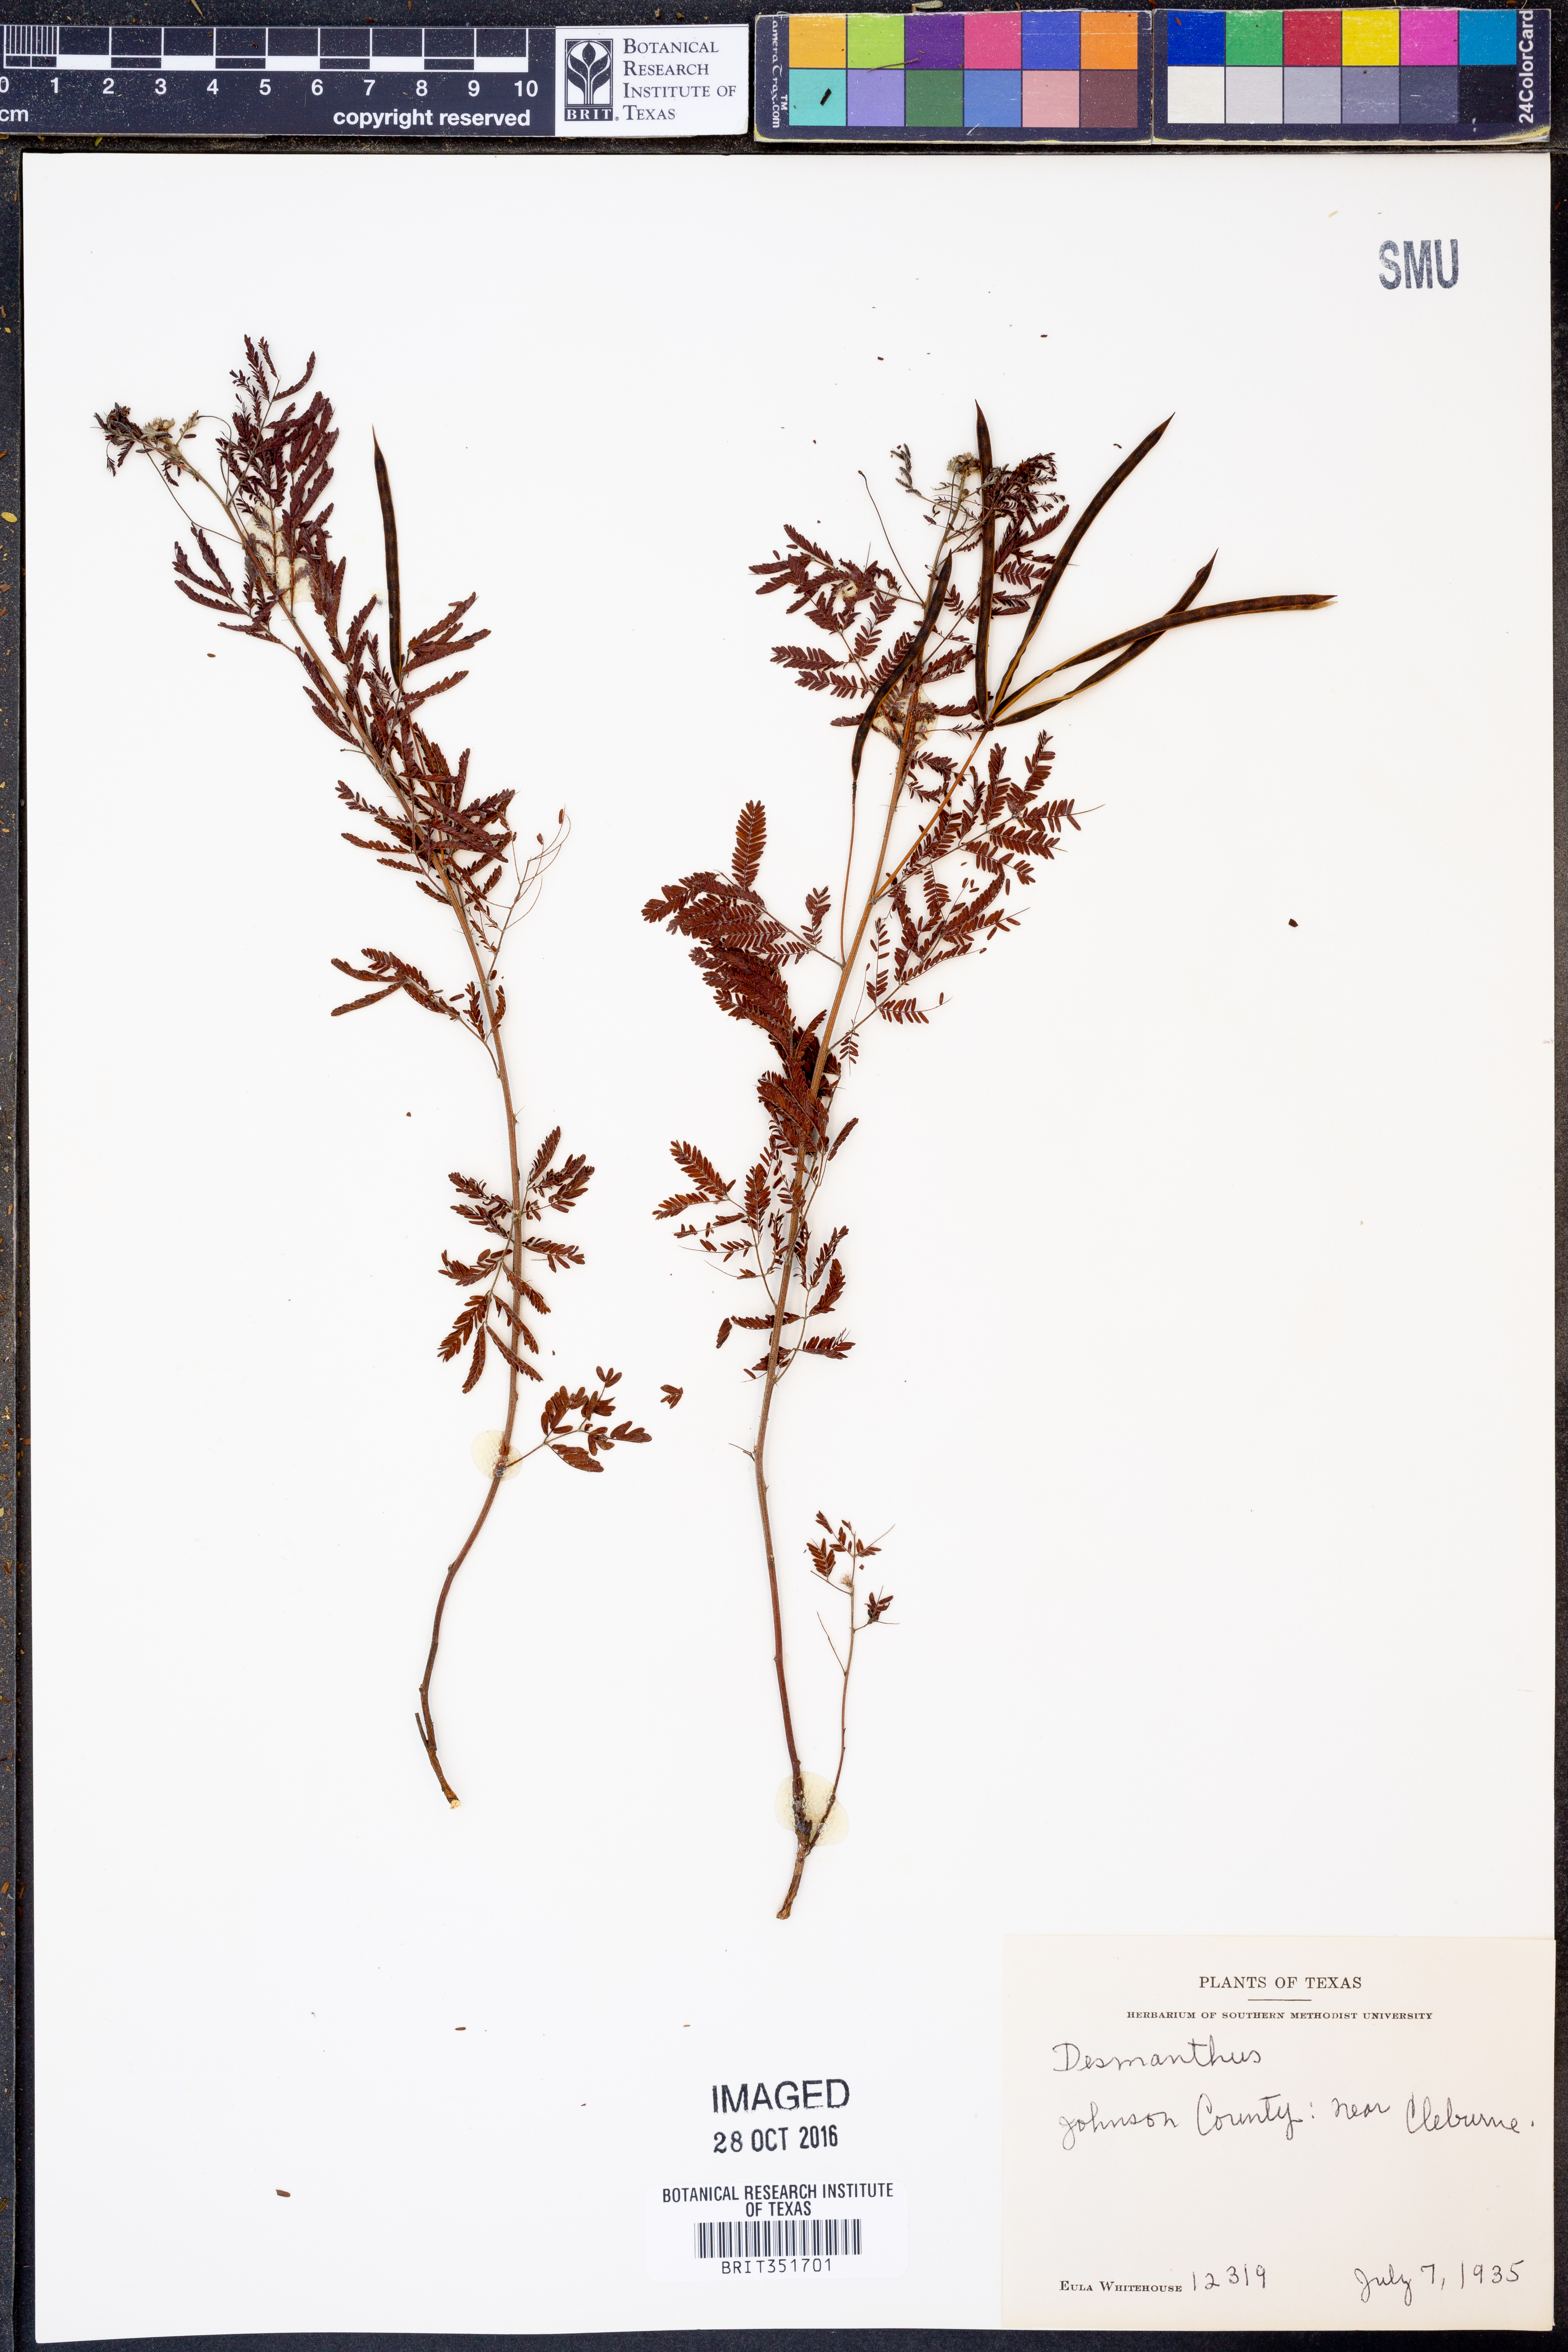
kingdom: Plantae
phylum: Tracheophyta
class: Magnoliopsida
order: Fabales
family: Fabaceae
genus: Desmanthus
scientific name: Desmanthus
